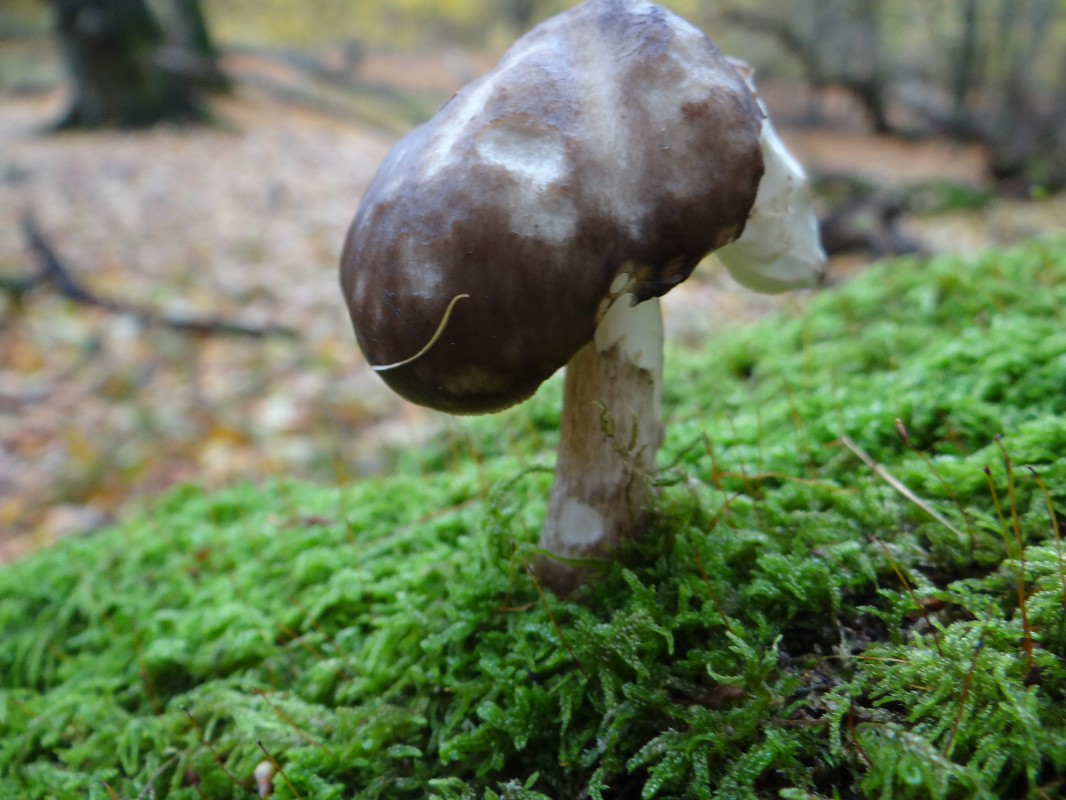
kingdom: Fungi
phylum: Basidiomycota
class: Agaricomycetes
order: Agaricales
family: Pluteaceae
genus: Pluteus
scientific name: Pluteus cervinus
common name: sodfarvet skærmhat
